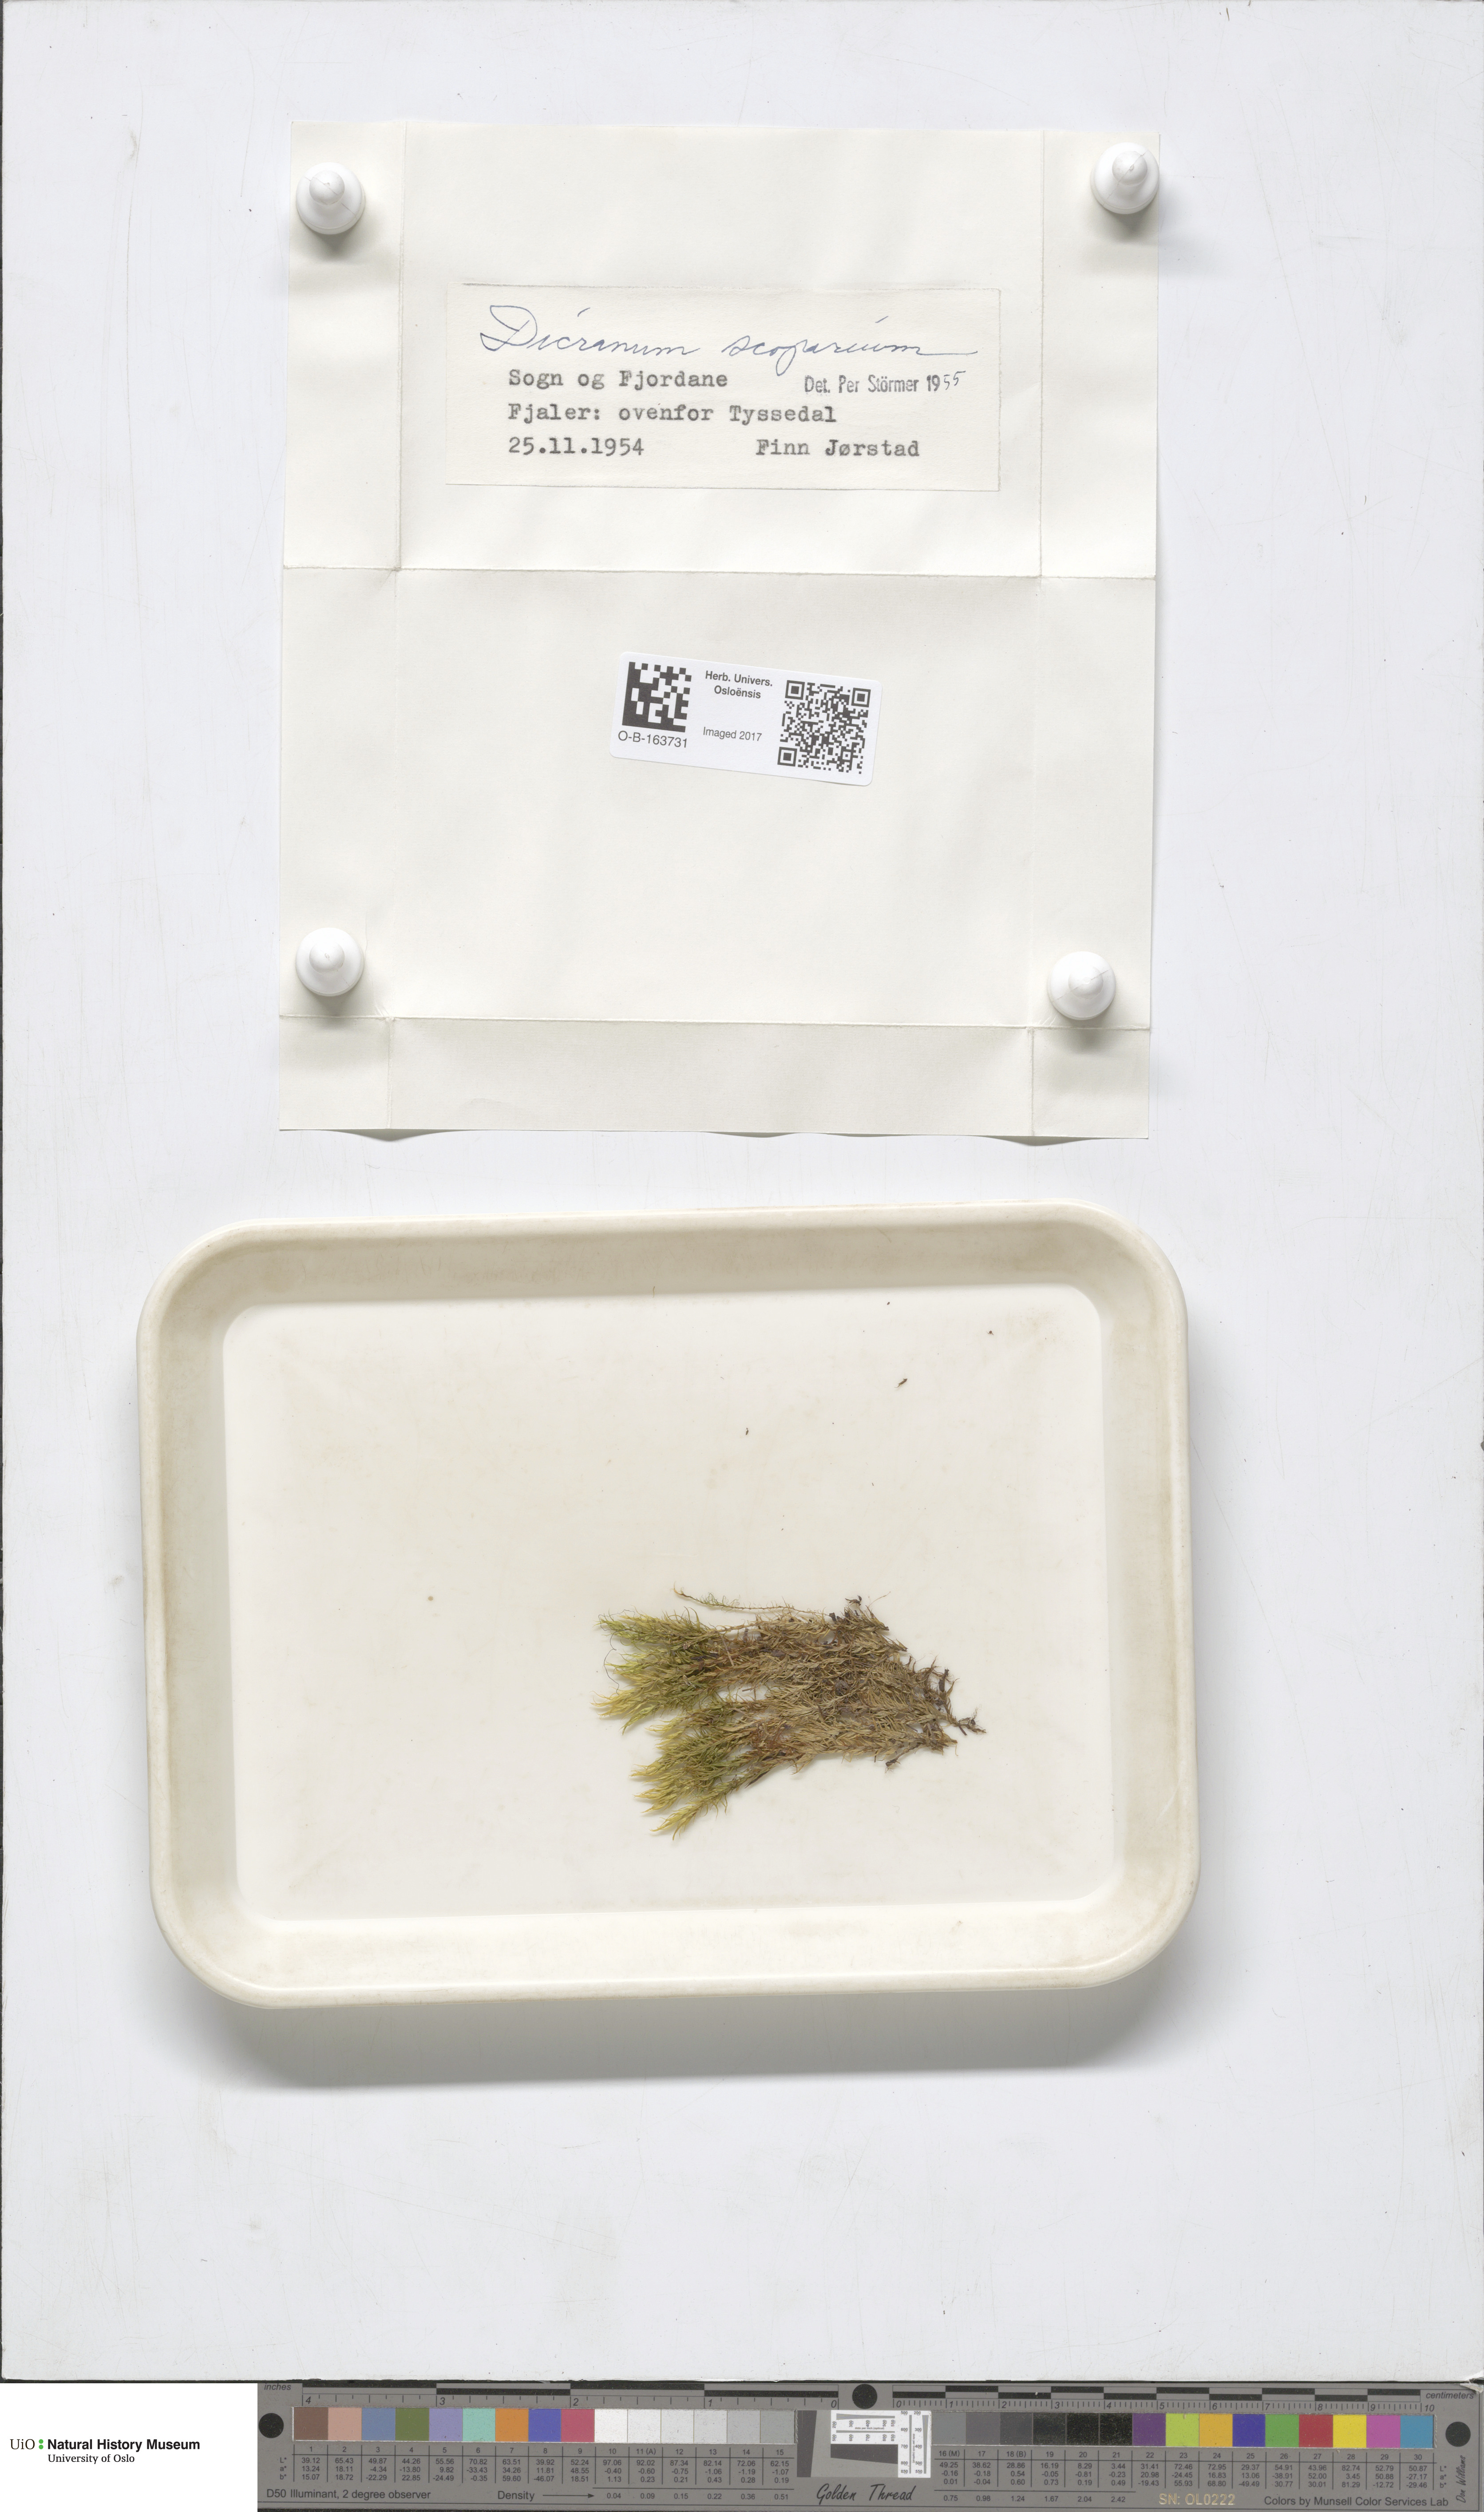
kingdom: Plantae
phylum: Bryophyta
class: Bryopsida
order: Dicranales
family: Dicranaceae
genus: Dicranum
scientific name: Dicranum scoparium
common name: Broom fork-moss
